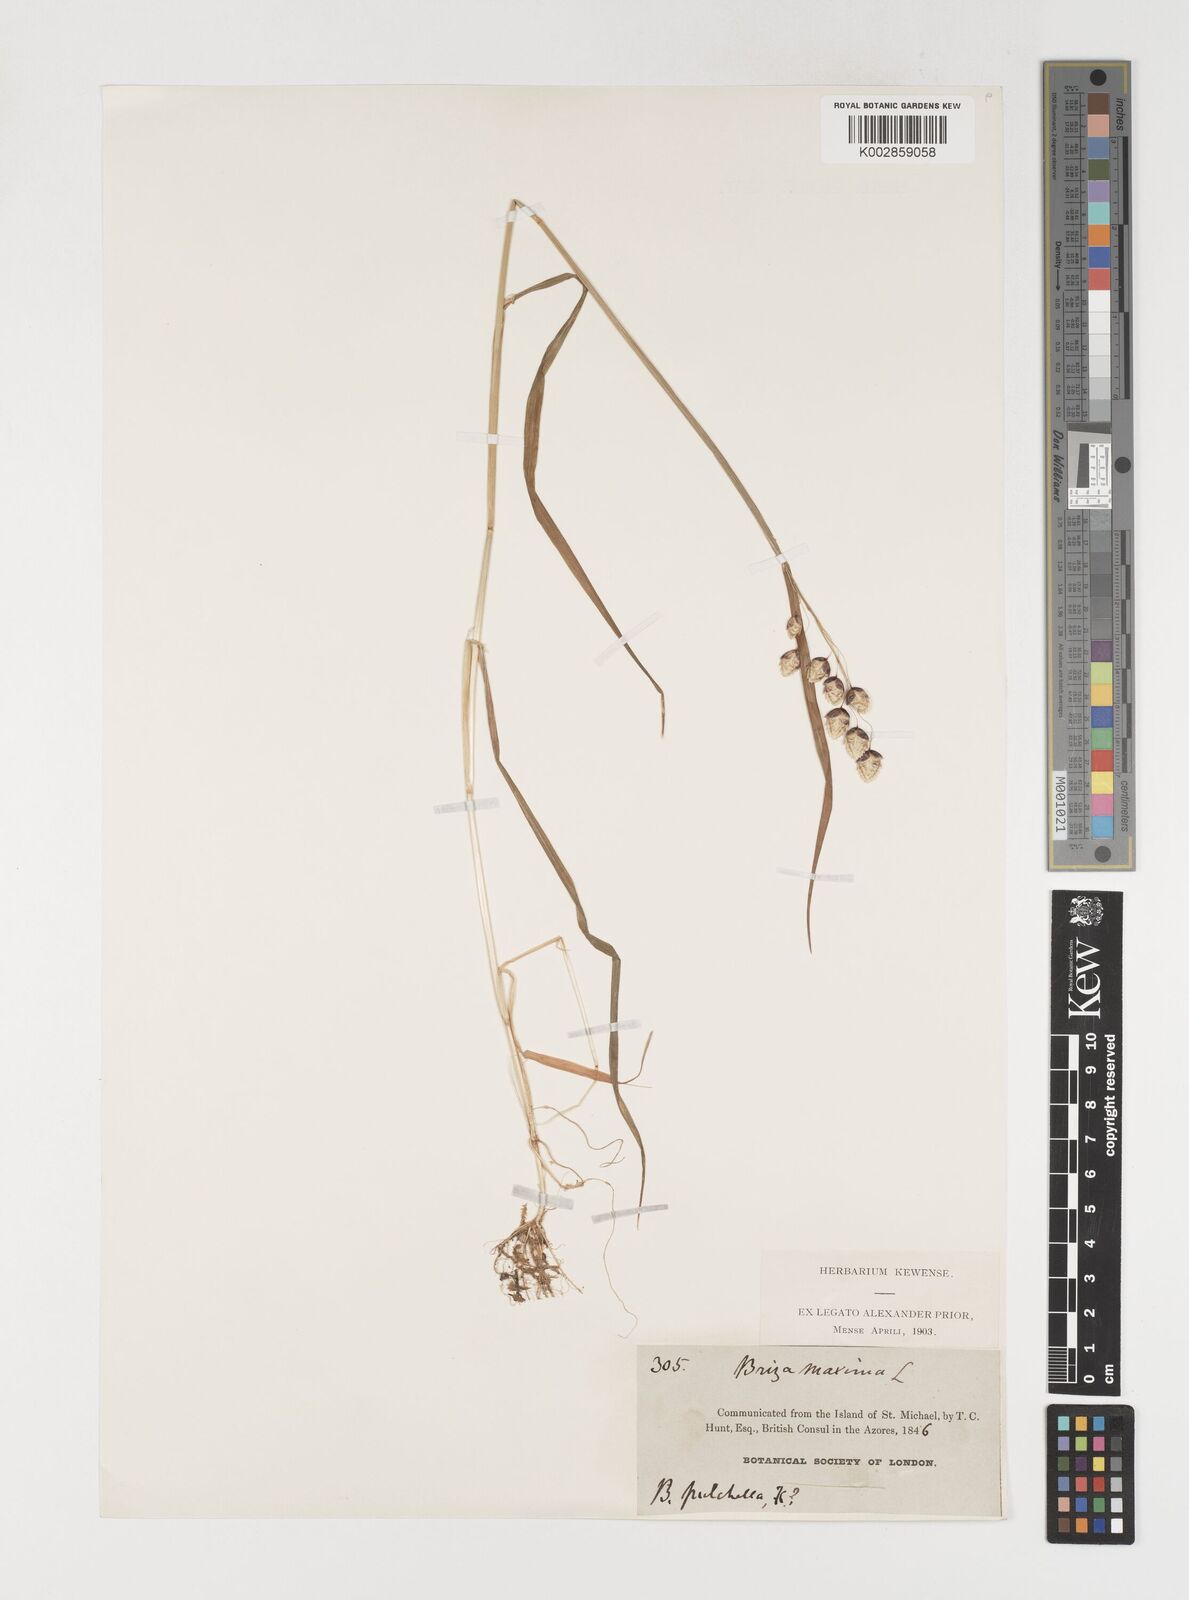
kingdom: Plantae
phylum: Tracheophyta
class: Liliopsida
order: Poales
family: Poaceae
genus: Briza
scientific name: Briza maxima
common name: Big quakinggrass
